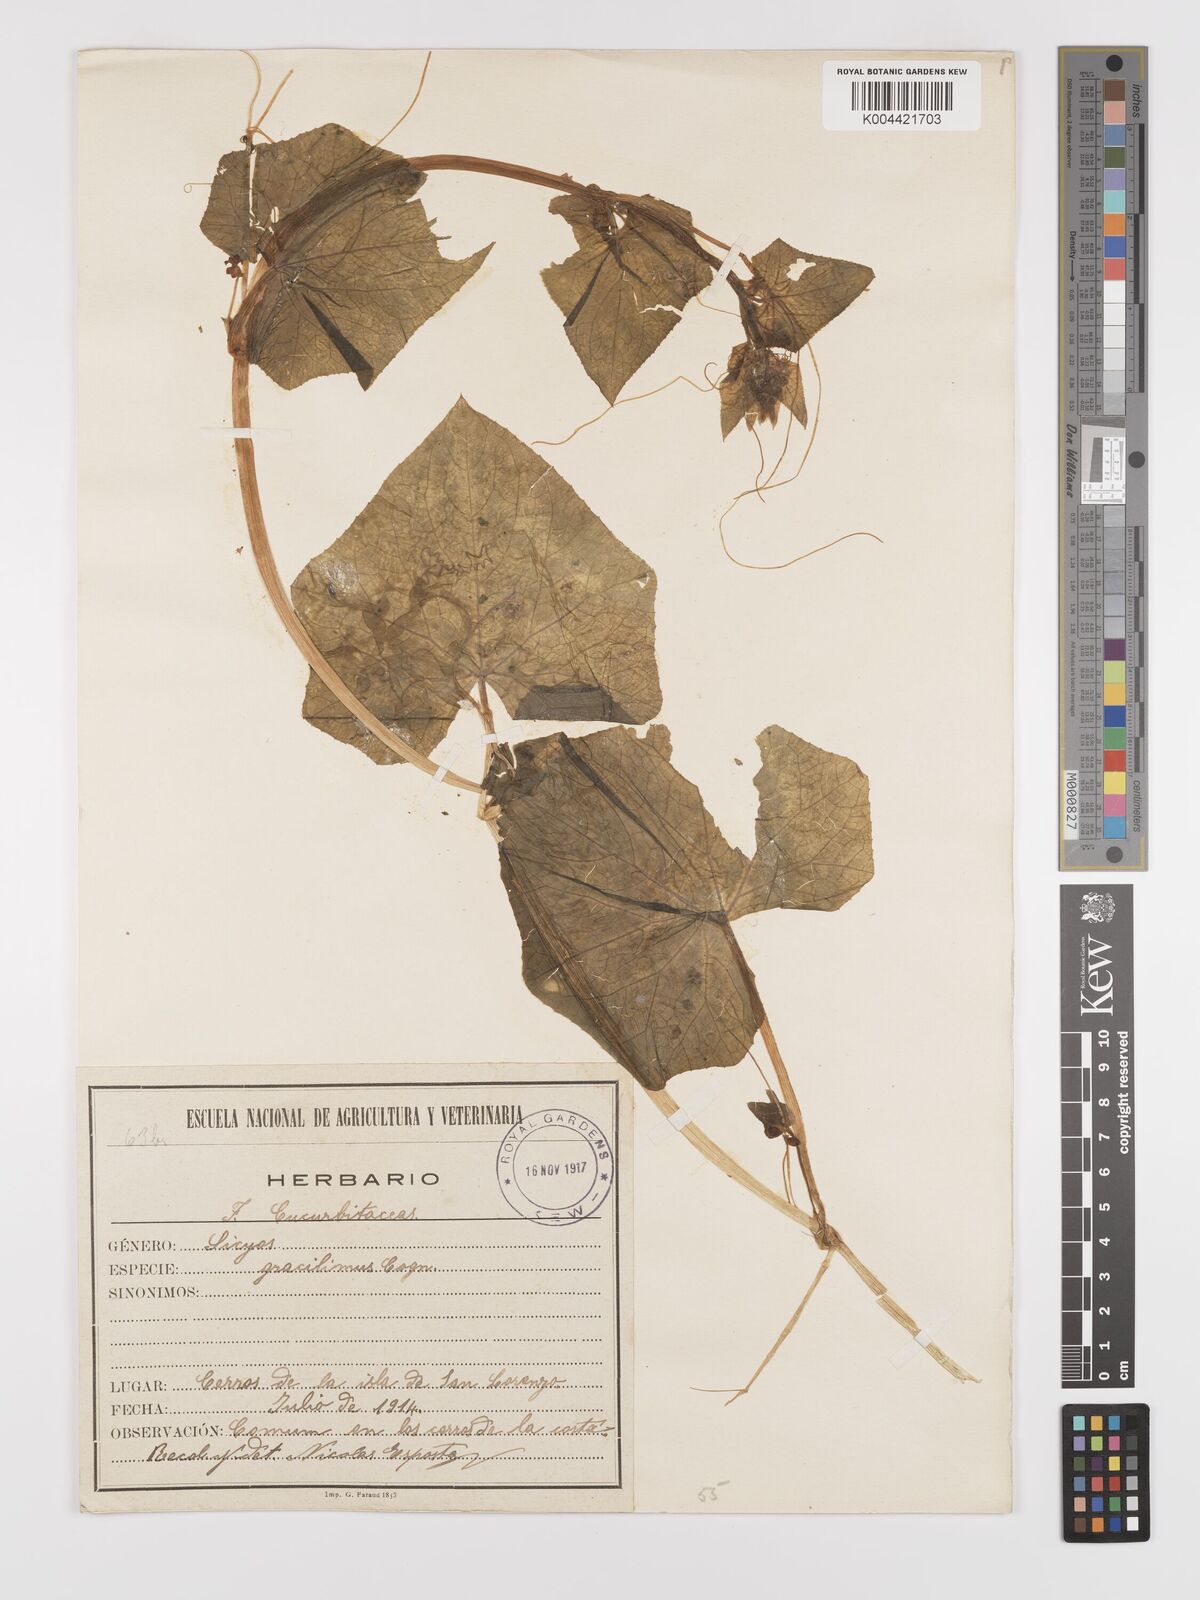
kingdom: Plantae
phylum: Tracheophyta
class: Magnoliopsida
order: Cucurbitales
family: Cucurbitaceae
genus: Sicyos
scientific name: Sicyos gracillimus
